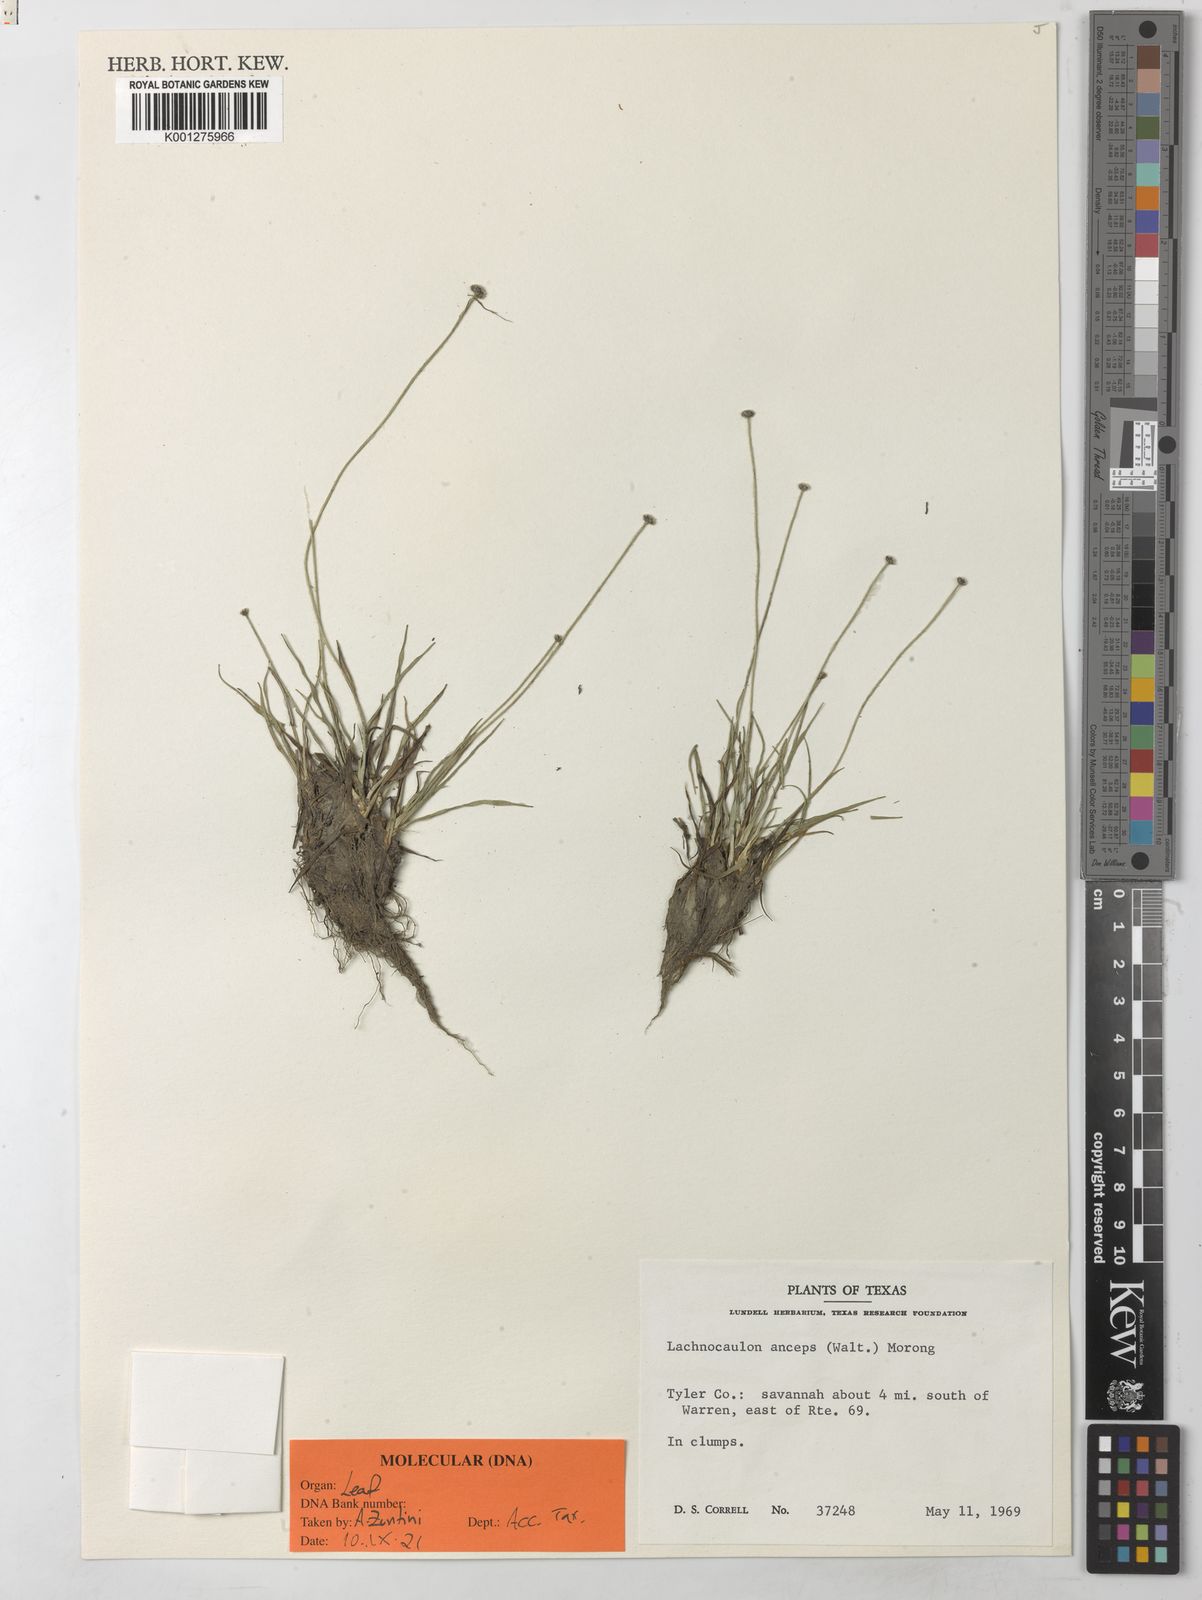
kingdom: Plantae
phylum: Tracheophyta
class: Liliopsida
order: Poales
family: Eriocaulaceae
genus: Paepalanthus
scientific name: Paepalanthus anceps
